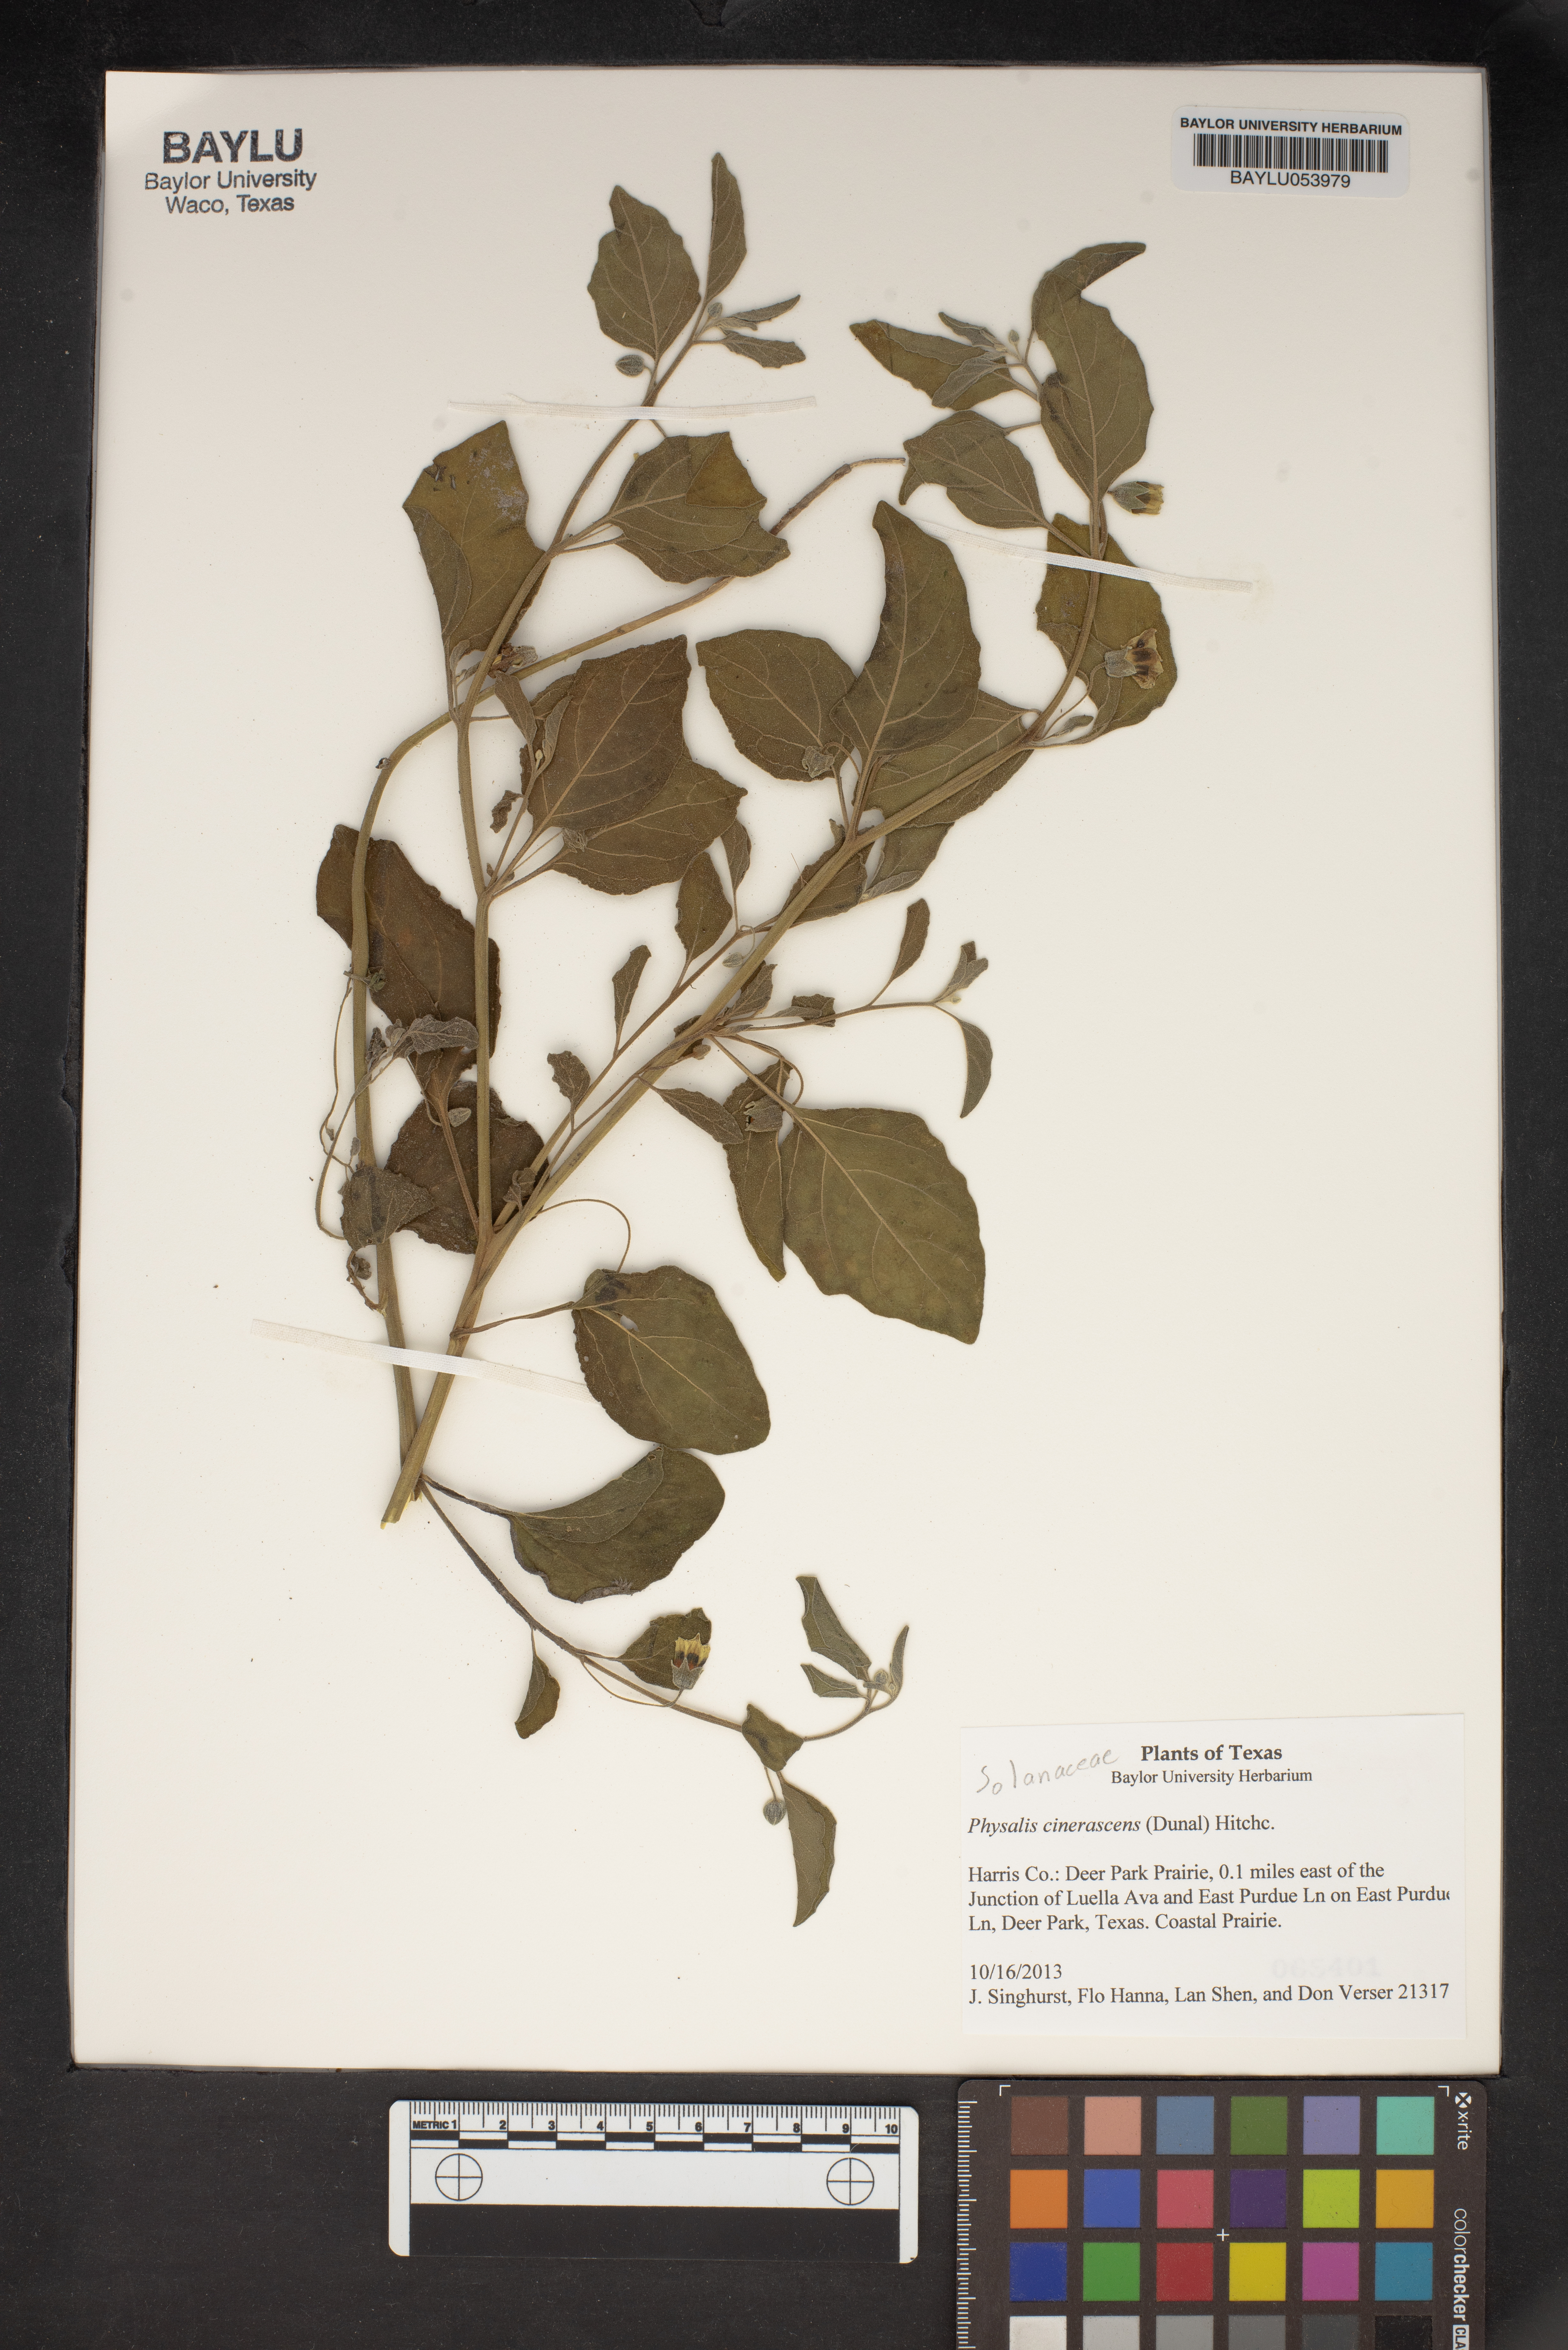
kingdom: Plantae
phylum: Tracheophyta
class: Magnoliopsida
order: Solanales
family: Solanaceae
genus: Physalis
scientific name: Physalis cinerascens
